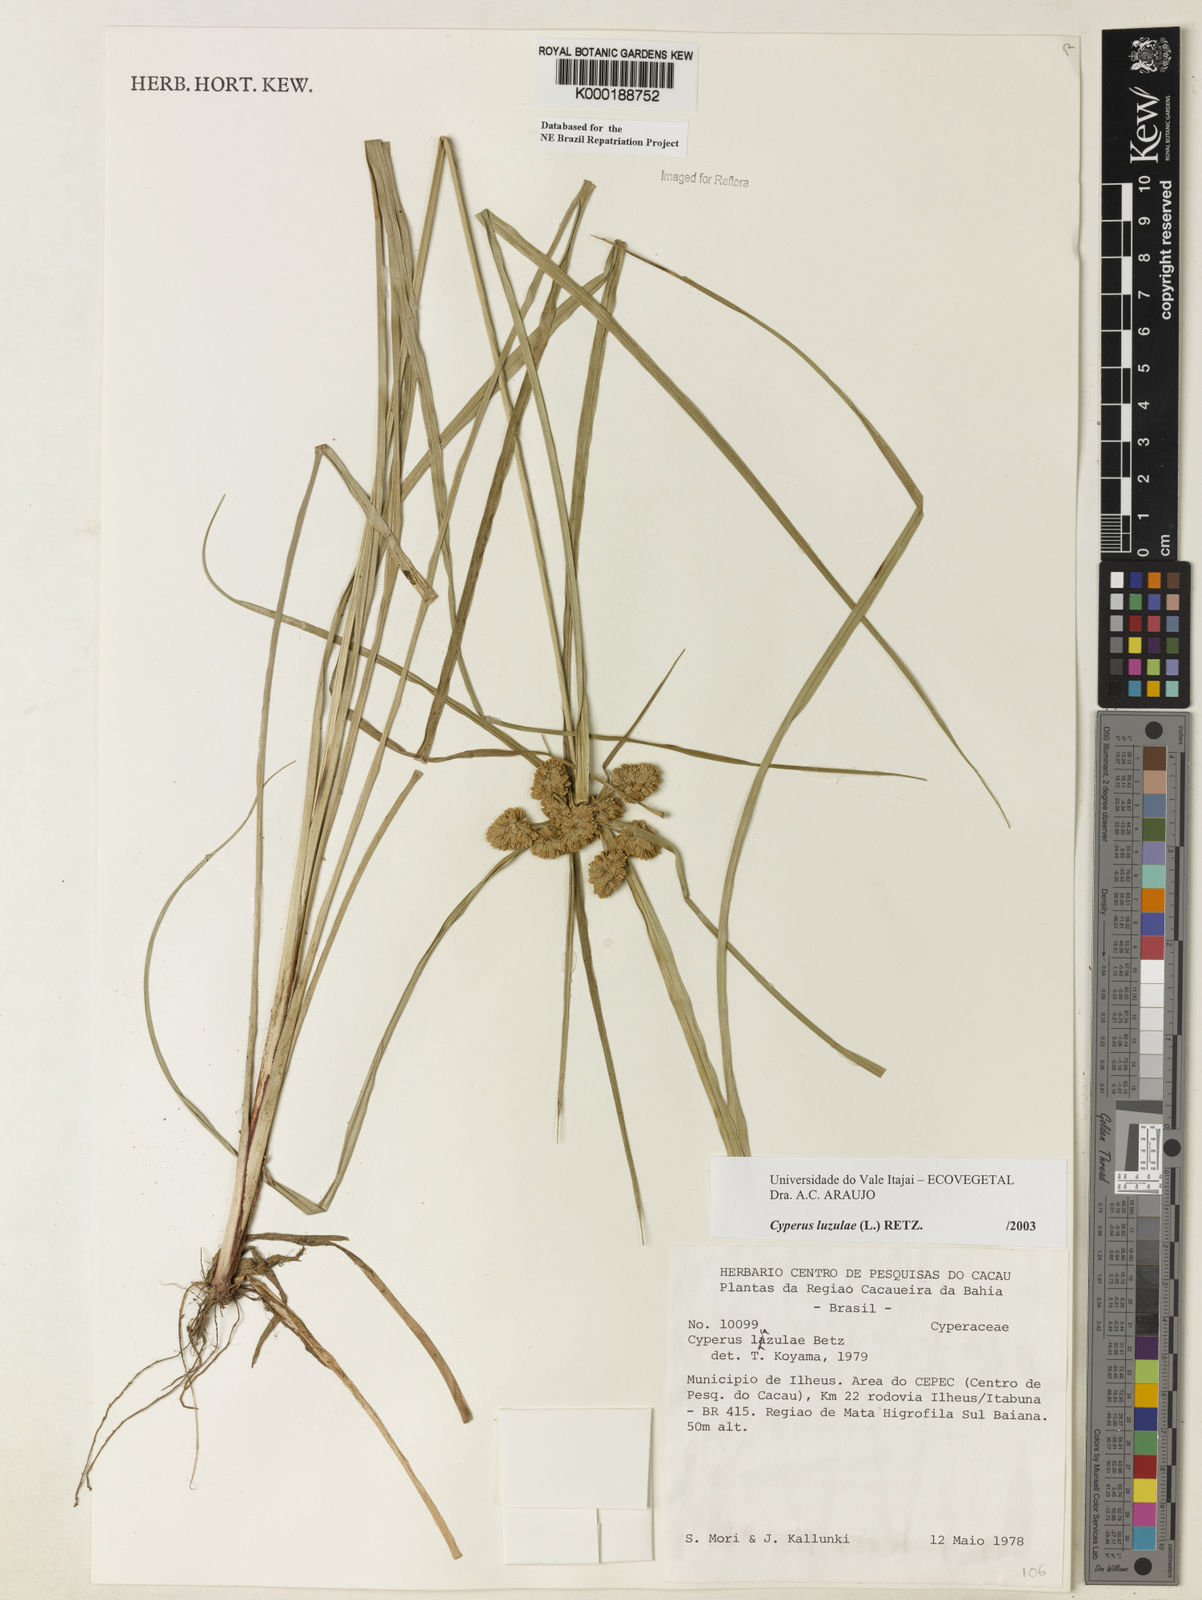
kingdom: Plantae
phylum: Tracheophyta
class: Liliopsida
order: Poales
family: Cyperaceae
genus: Cyperus
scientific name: Cyperus luzulae
